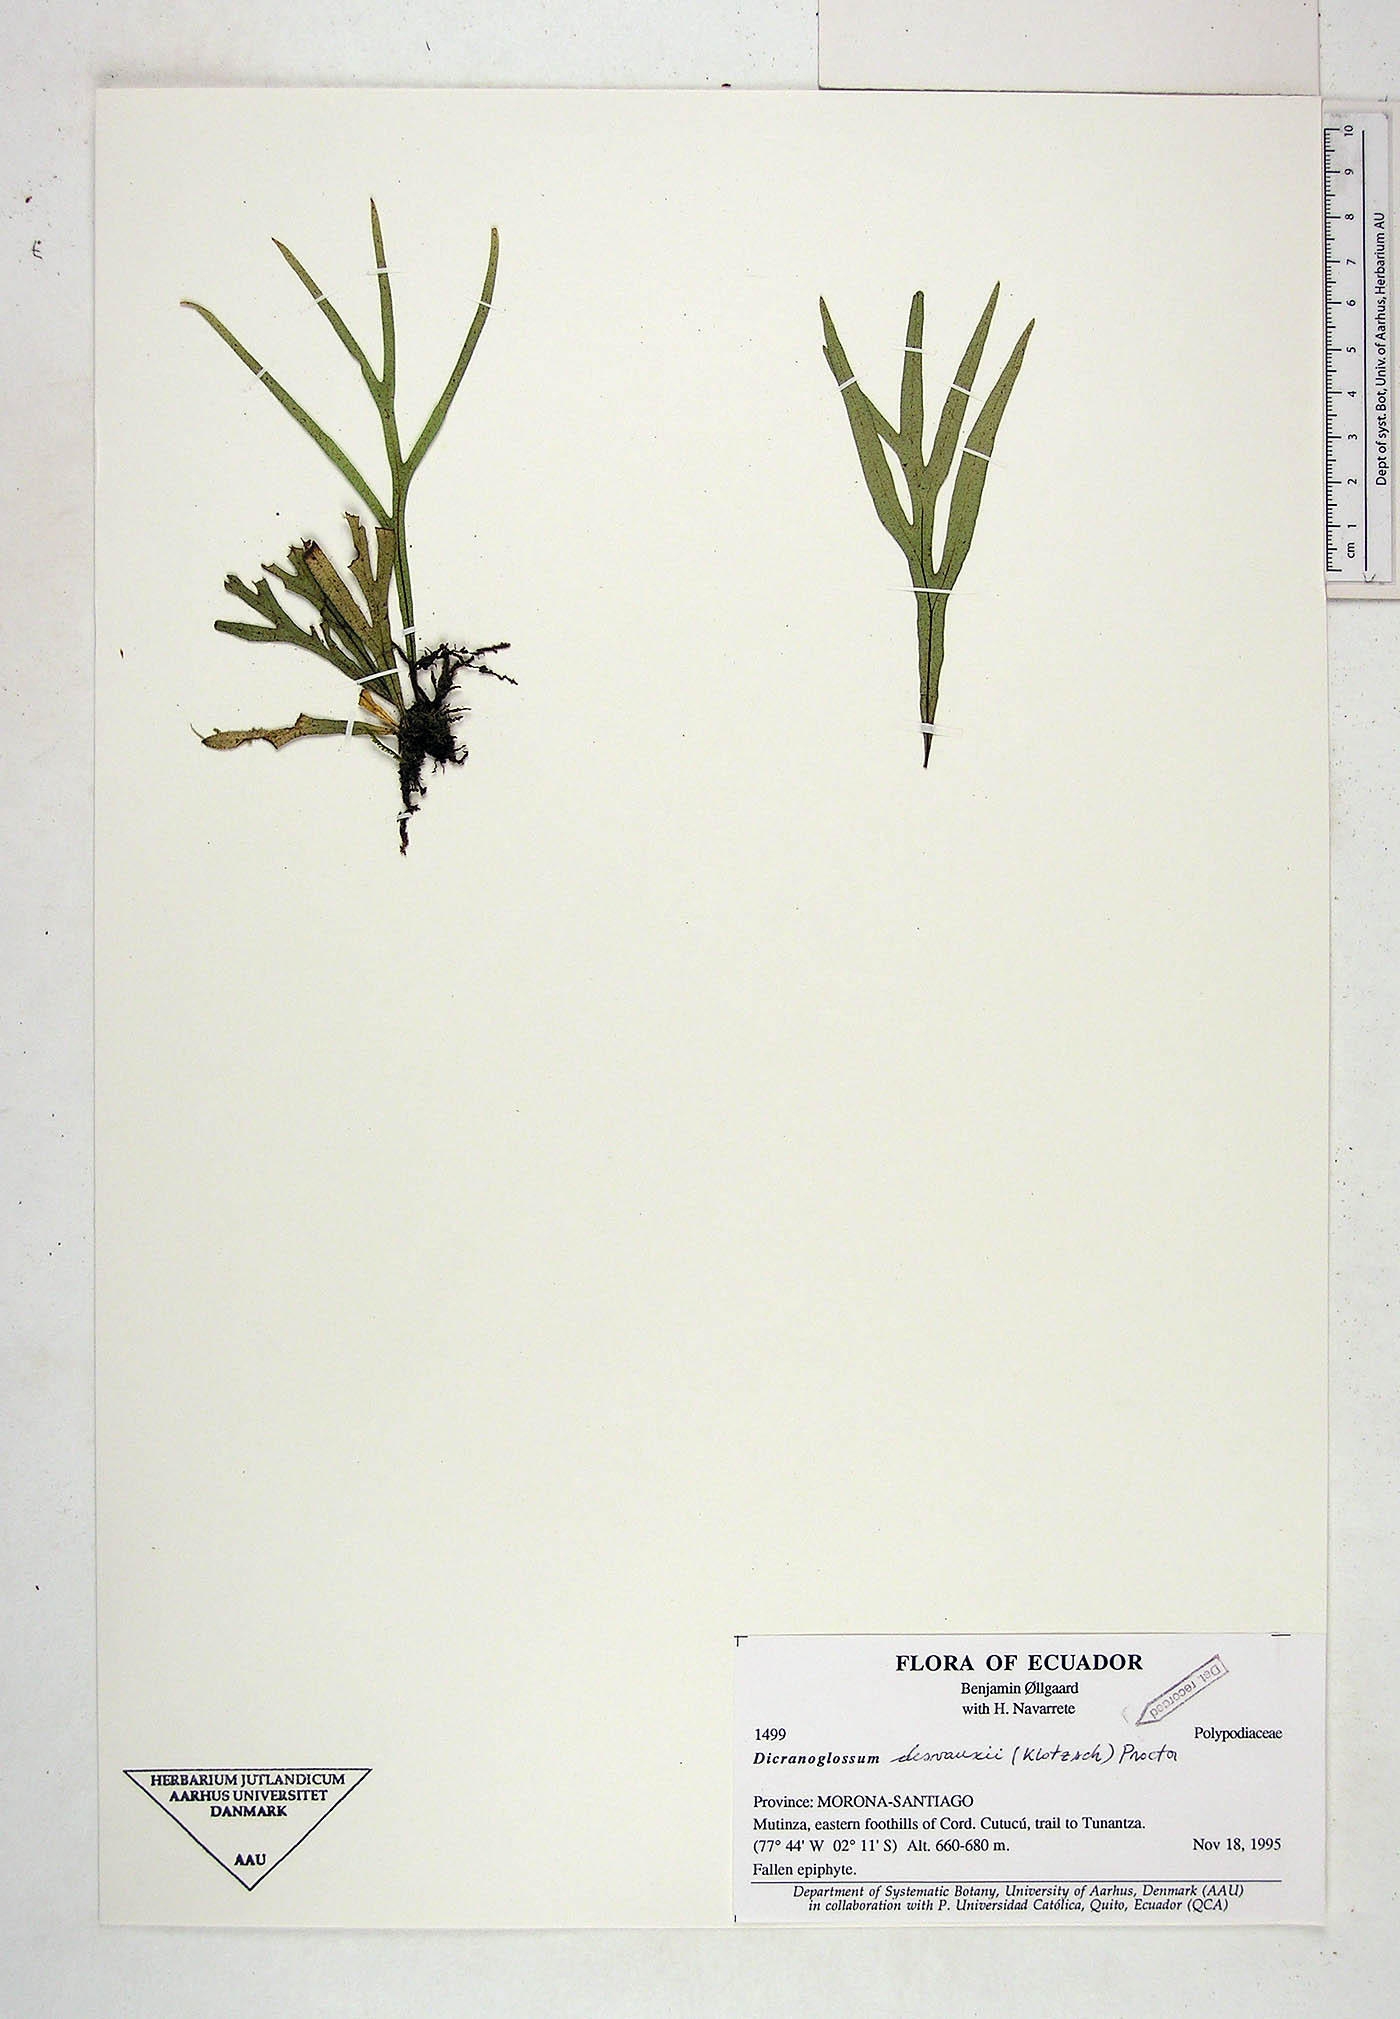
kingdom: Plantae
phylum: Tracheophyta
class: Polypodiopsida
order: Polypodiales
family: Polypodiaceae
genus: Pleopeltis
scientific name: Pleopeltis desvauxii
